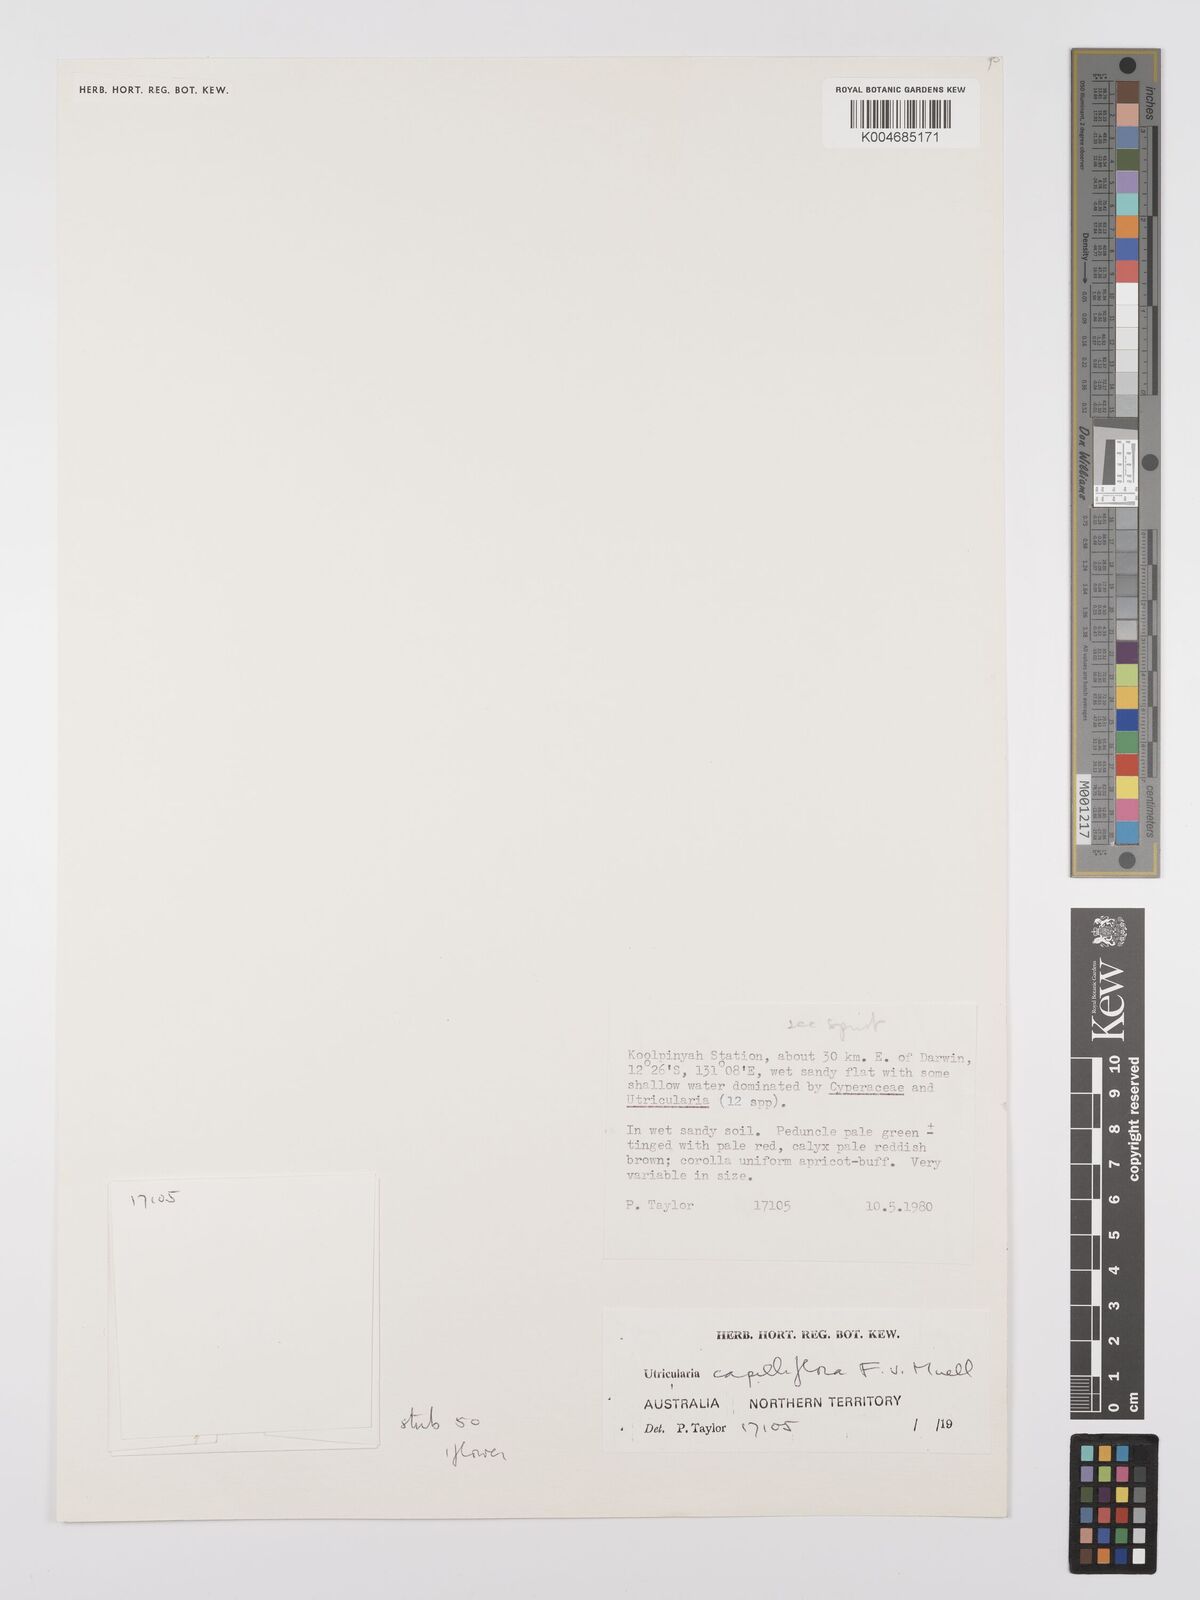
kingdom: Plantae
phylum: Tracheophyta
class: Magnoliopsida
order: Lamiales
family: Lentibulariaceae
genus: Utricularia
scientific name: Utricularia capilliflora
